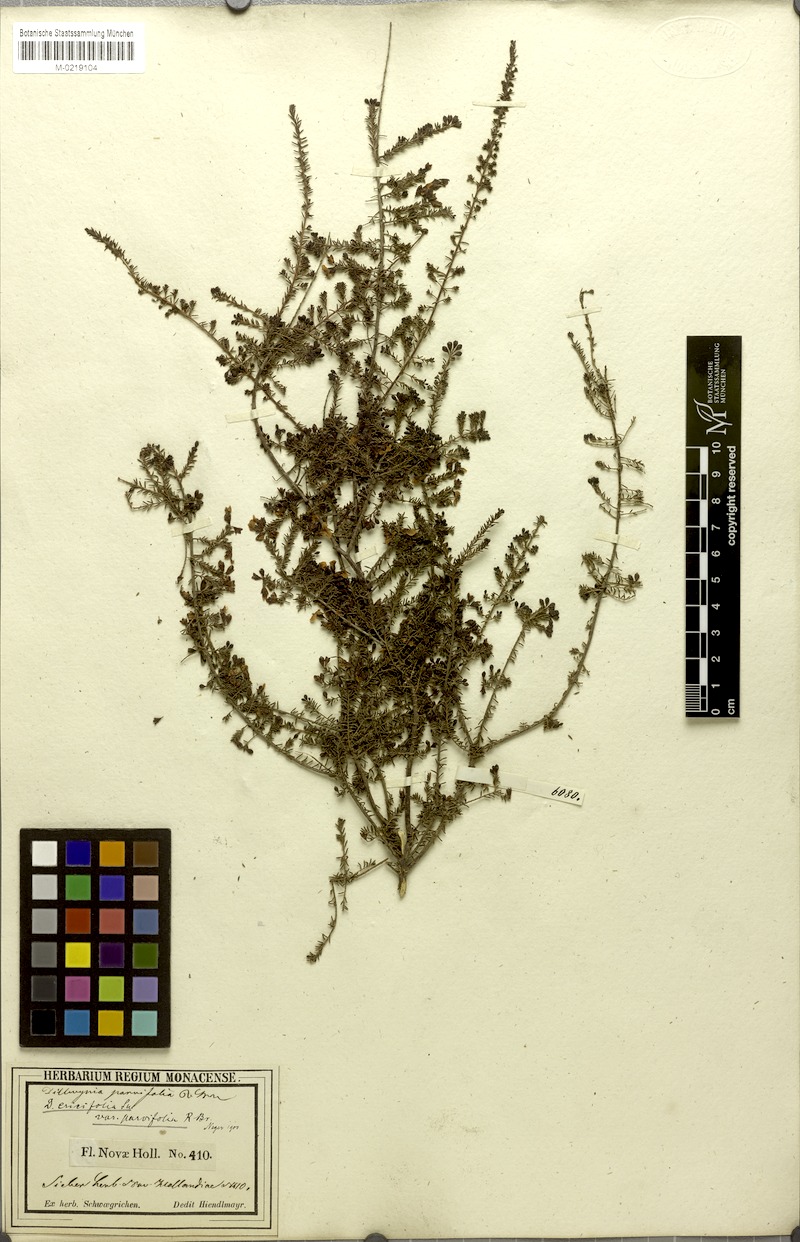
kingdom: Plantae
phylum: Tracheophyta
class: Magnoliopsida
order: Fabales
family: Fabaceae
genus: Dillwynia
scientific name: Dillwynia parvifolia
